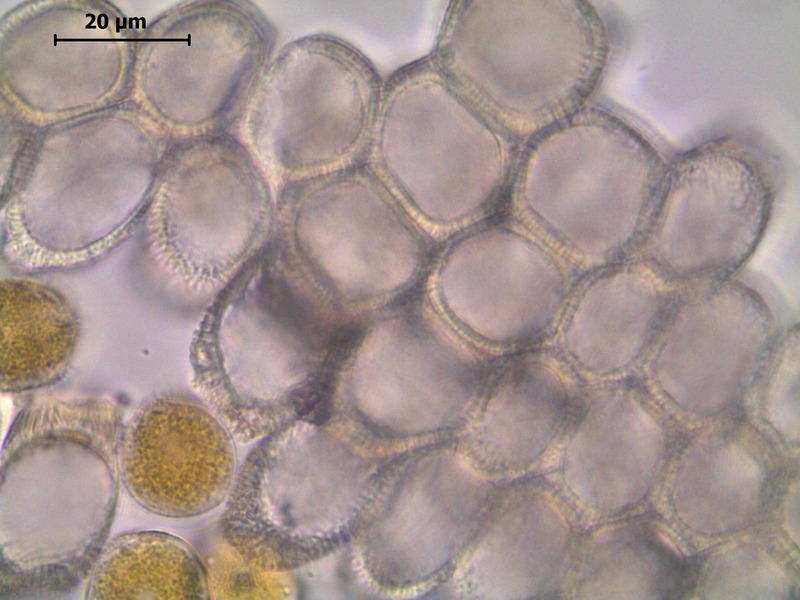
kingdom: Fungi
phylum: Basidiomycota
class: Pucciniomycetes
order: Pucciniales
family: Pucciniaceae
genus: Puccinia
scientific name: Puccinia dioicae
